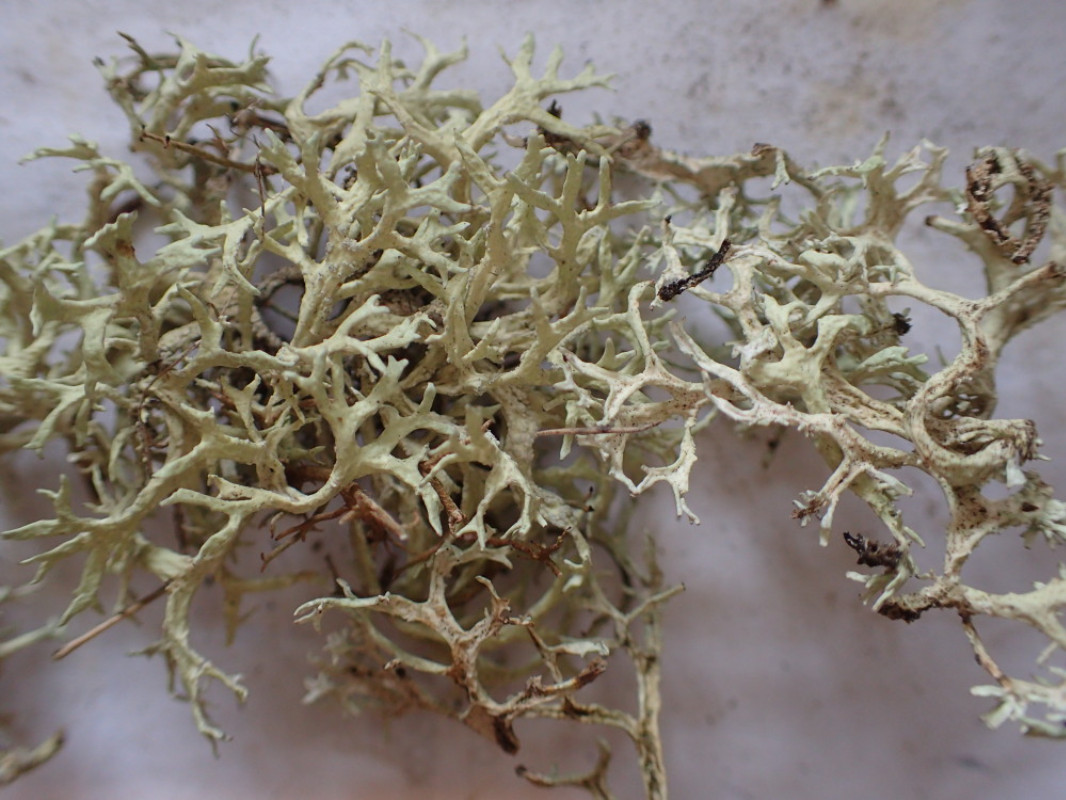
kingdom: Fungi
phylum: Ascomycota
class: Lecanoromycetes
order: Lecanorales
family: Parmeliaceae
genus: Evernia
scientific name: Evernia prunastri
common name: almindelig slåenlav
